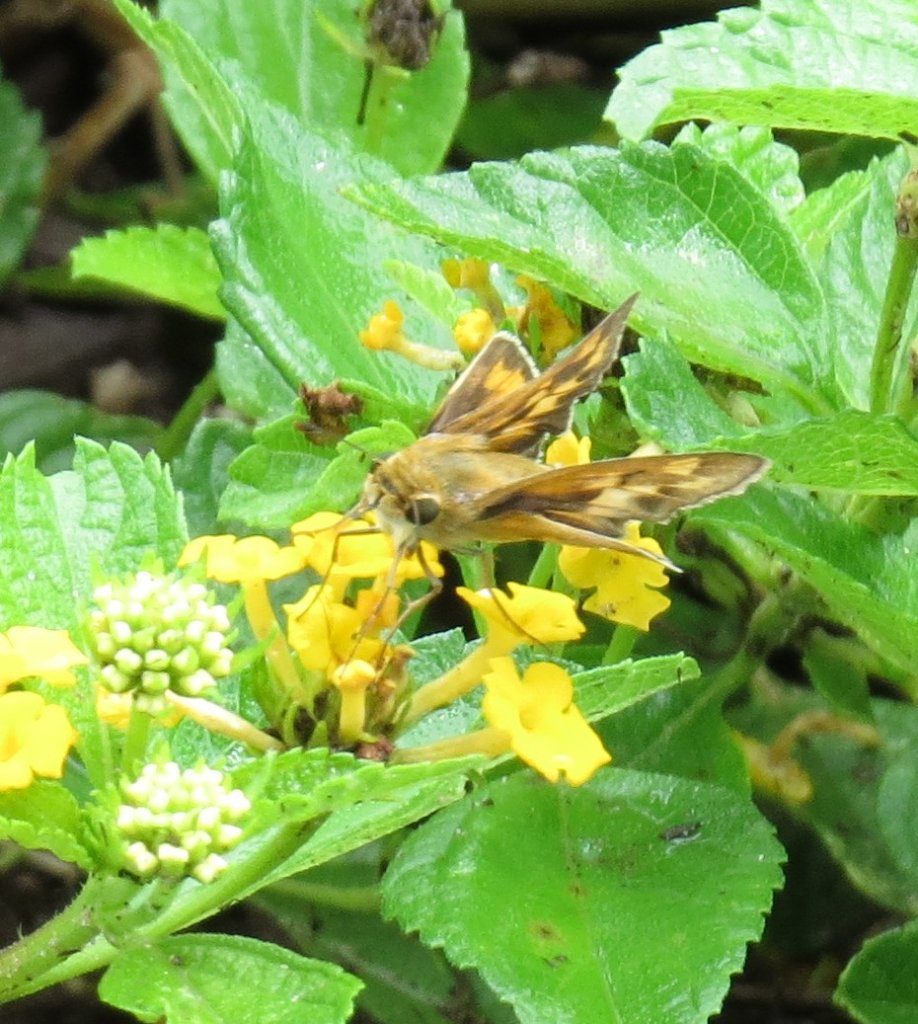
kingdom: Animalia
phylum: Arthropoda
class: Insecta
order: Lepidoptera
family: Hesperiidae
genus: Hylephila
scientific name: Hylephila phyleus
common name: Fiery Skipper
